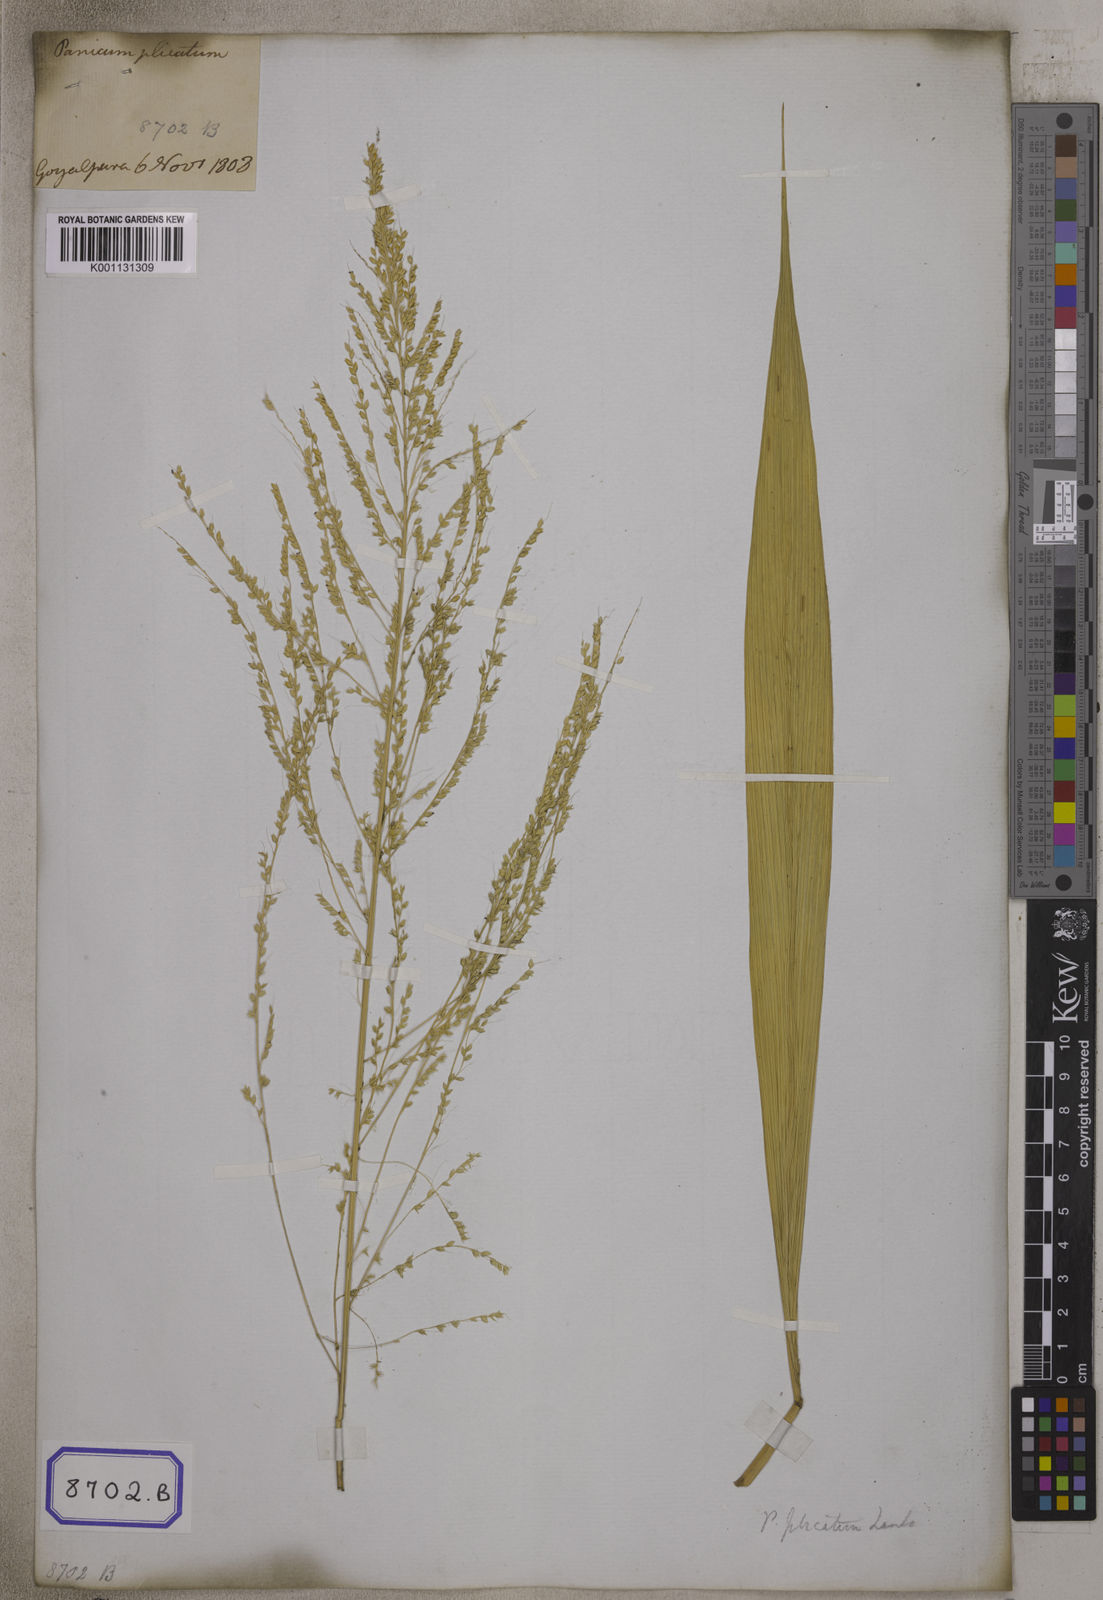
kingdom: Plantae
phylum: Tracheophyta
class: Liliopsida
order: Poales
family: Poaceae
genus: Setaria
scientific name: Setaria palmifolia
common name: Broadleaved bristlegrass
